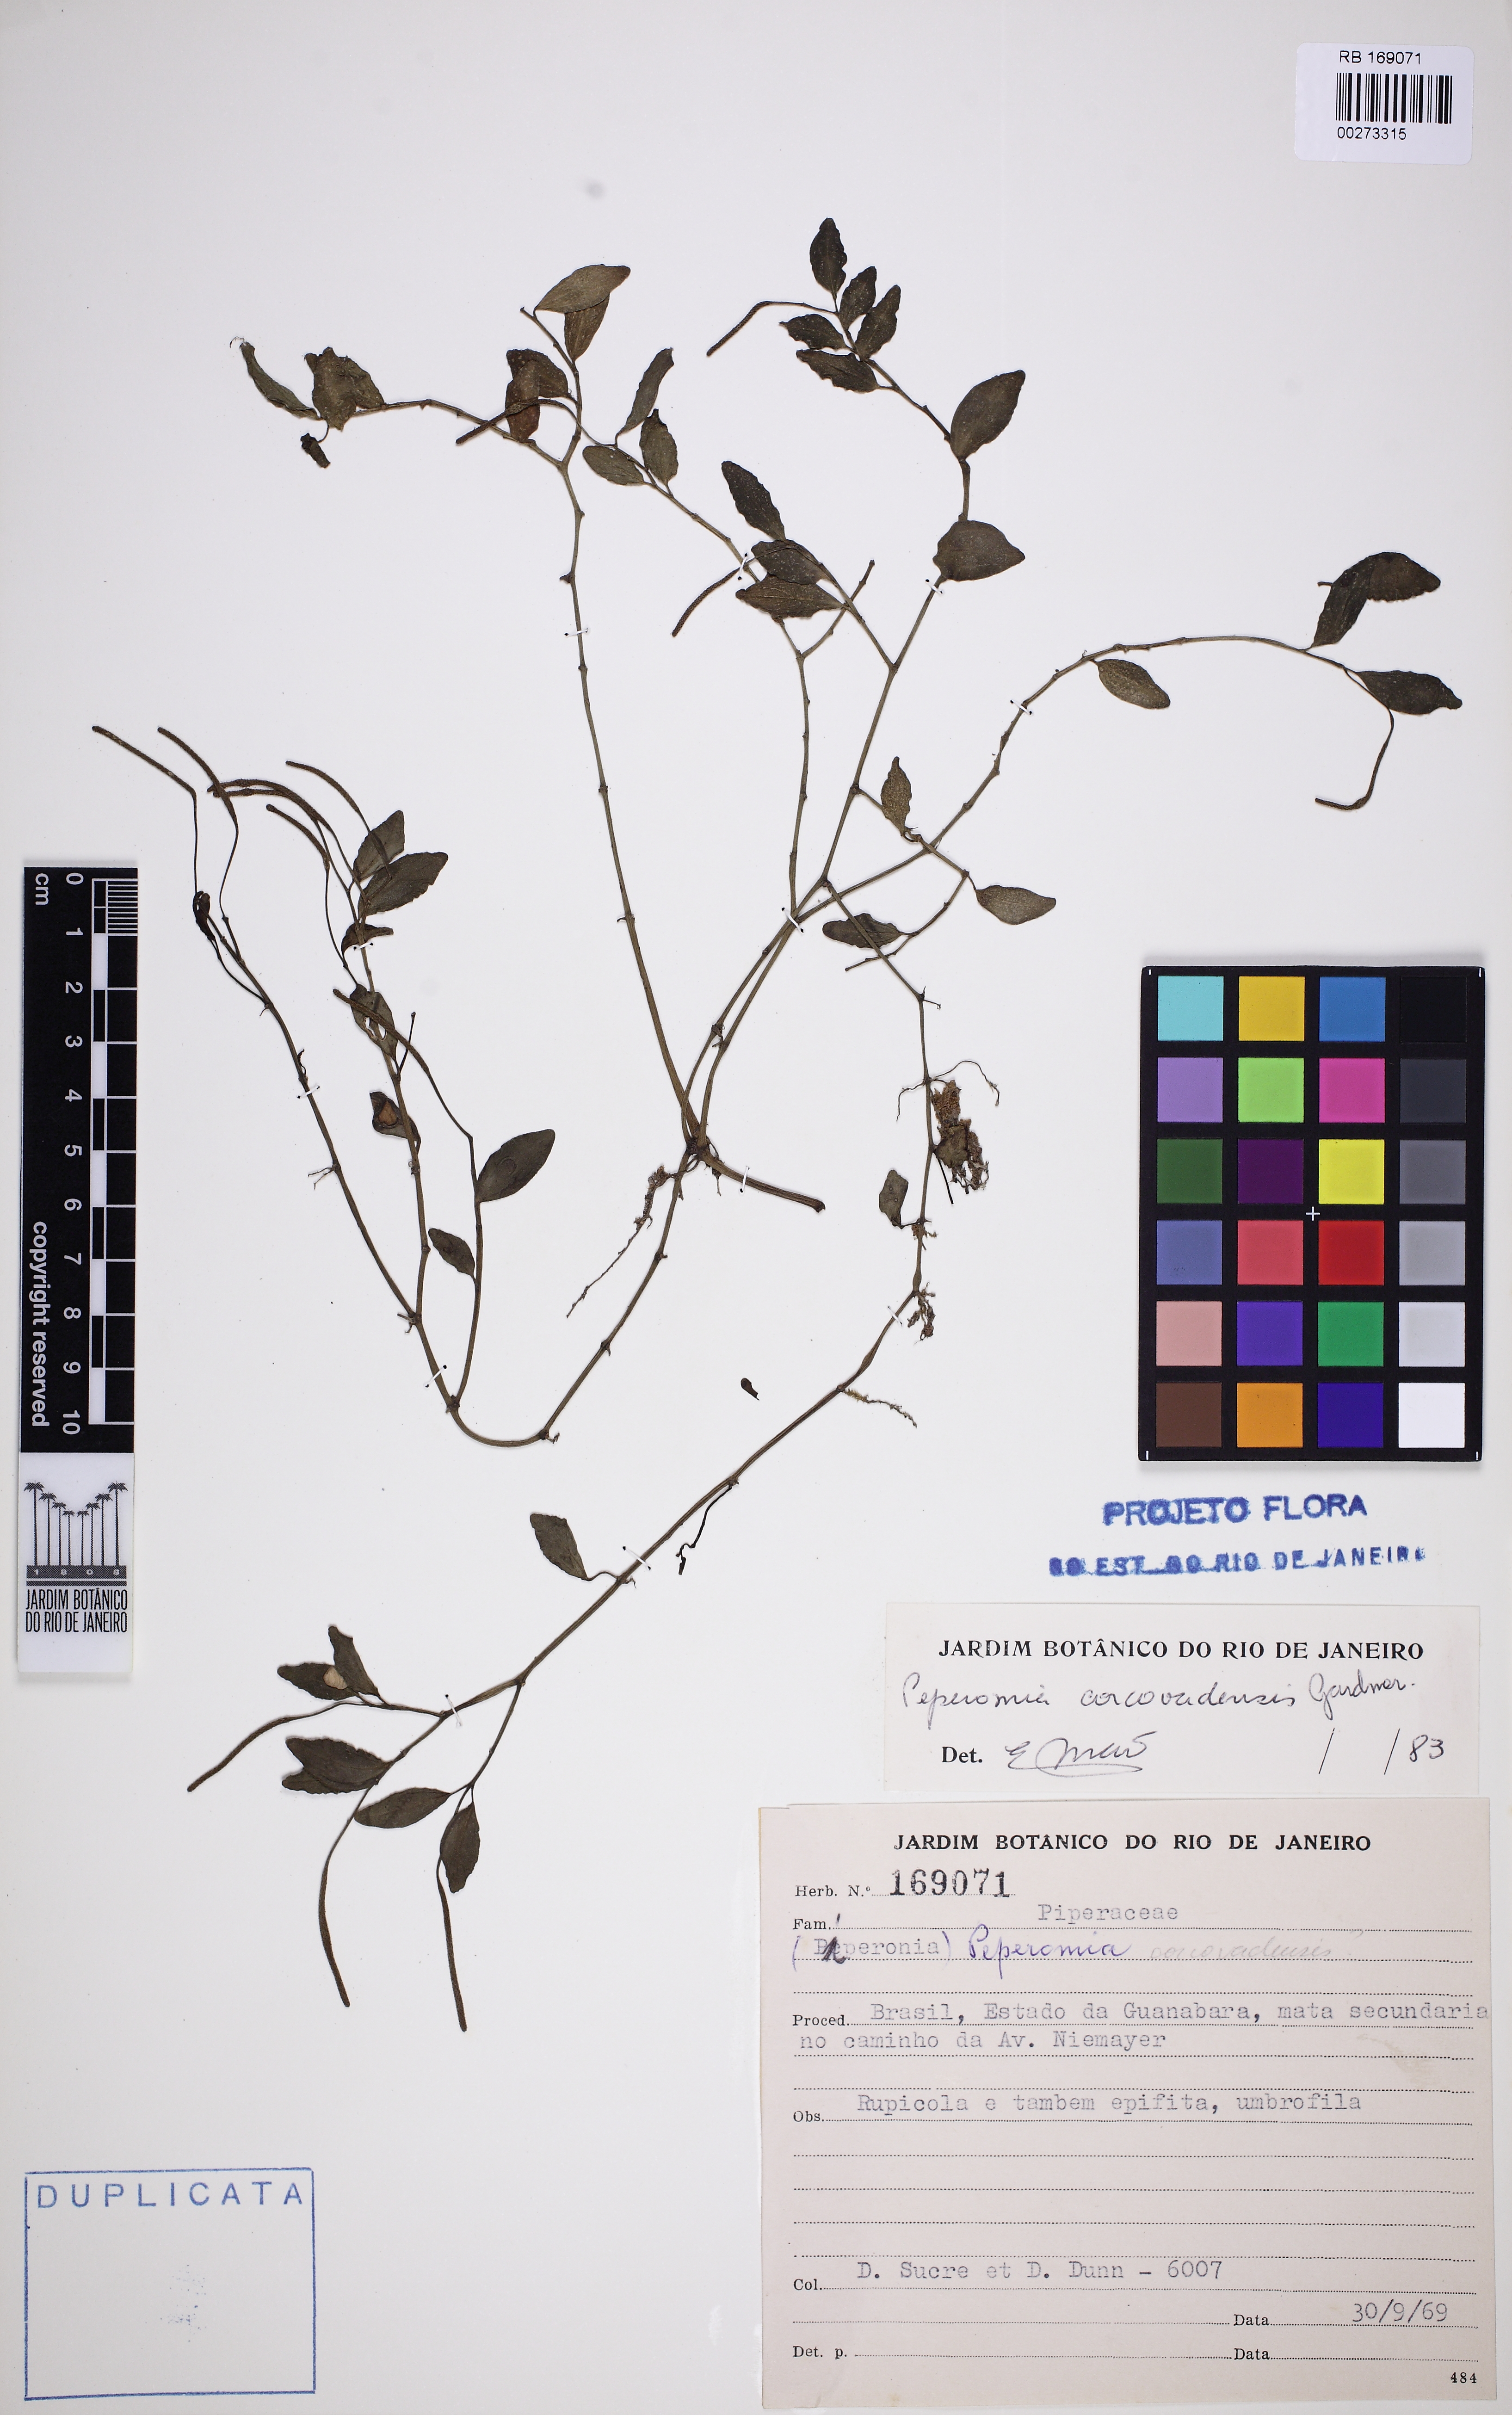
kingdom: Plantae
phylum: Tracheophyta
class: Magnoliopsida
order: Piperales
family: Piperaceae
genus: Peperomia
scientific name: Peperomia corcovadensis
